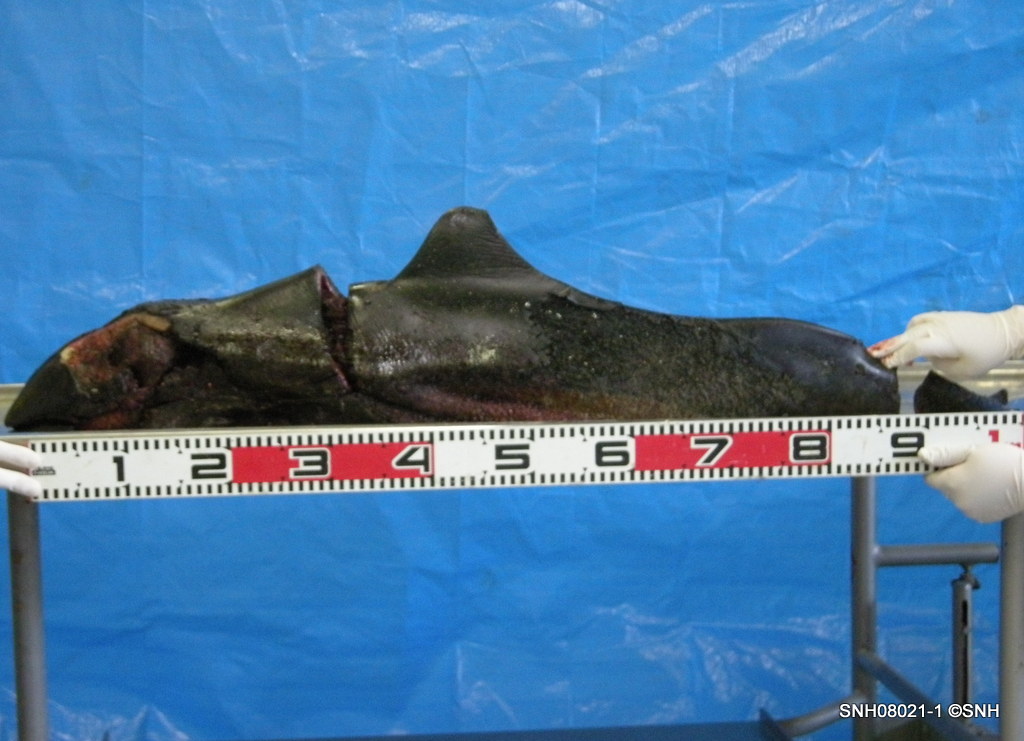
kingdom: Animalia
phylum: Chordata
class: Mammalia
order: Cetacea
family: Phocoenidae
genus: Phocoenoides
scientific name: Phocoenoides dalli
